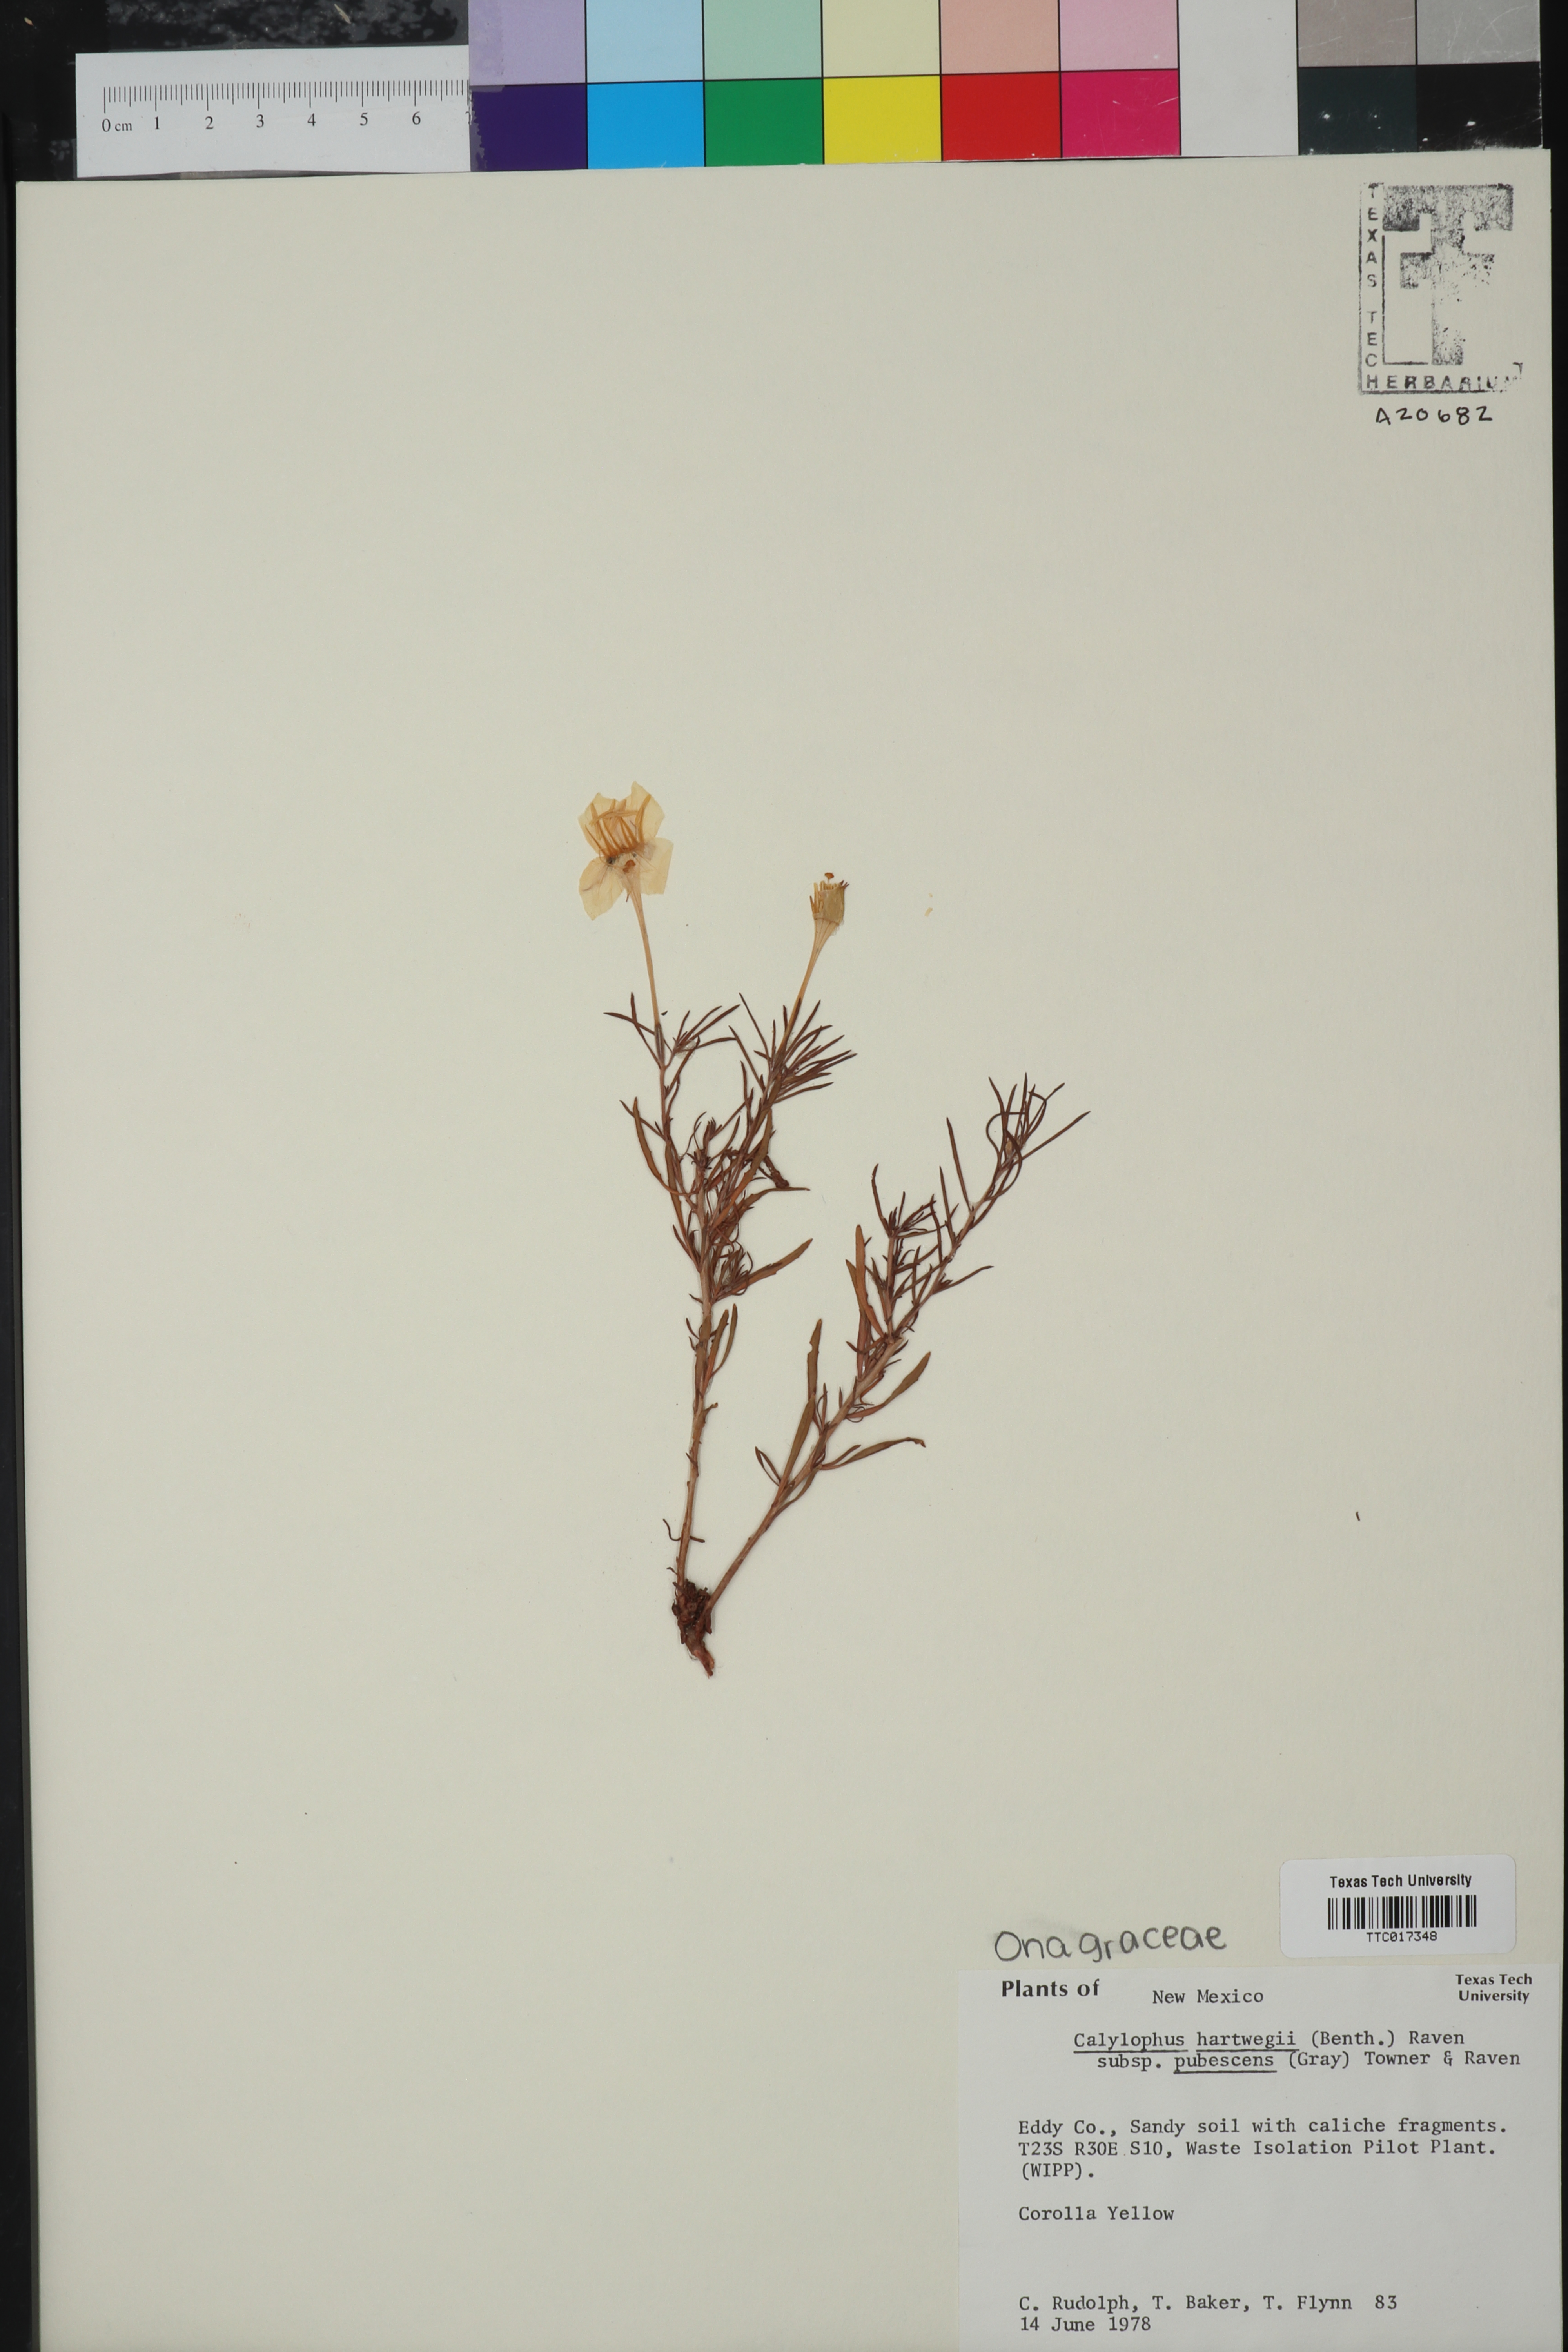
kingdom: Plantae
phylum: Tracheophyta
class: Magnoliopsida
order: Myrtales
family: Onagraceae
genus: Oenothera
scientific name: Oenothera hartwegii
